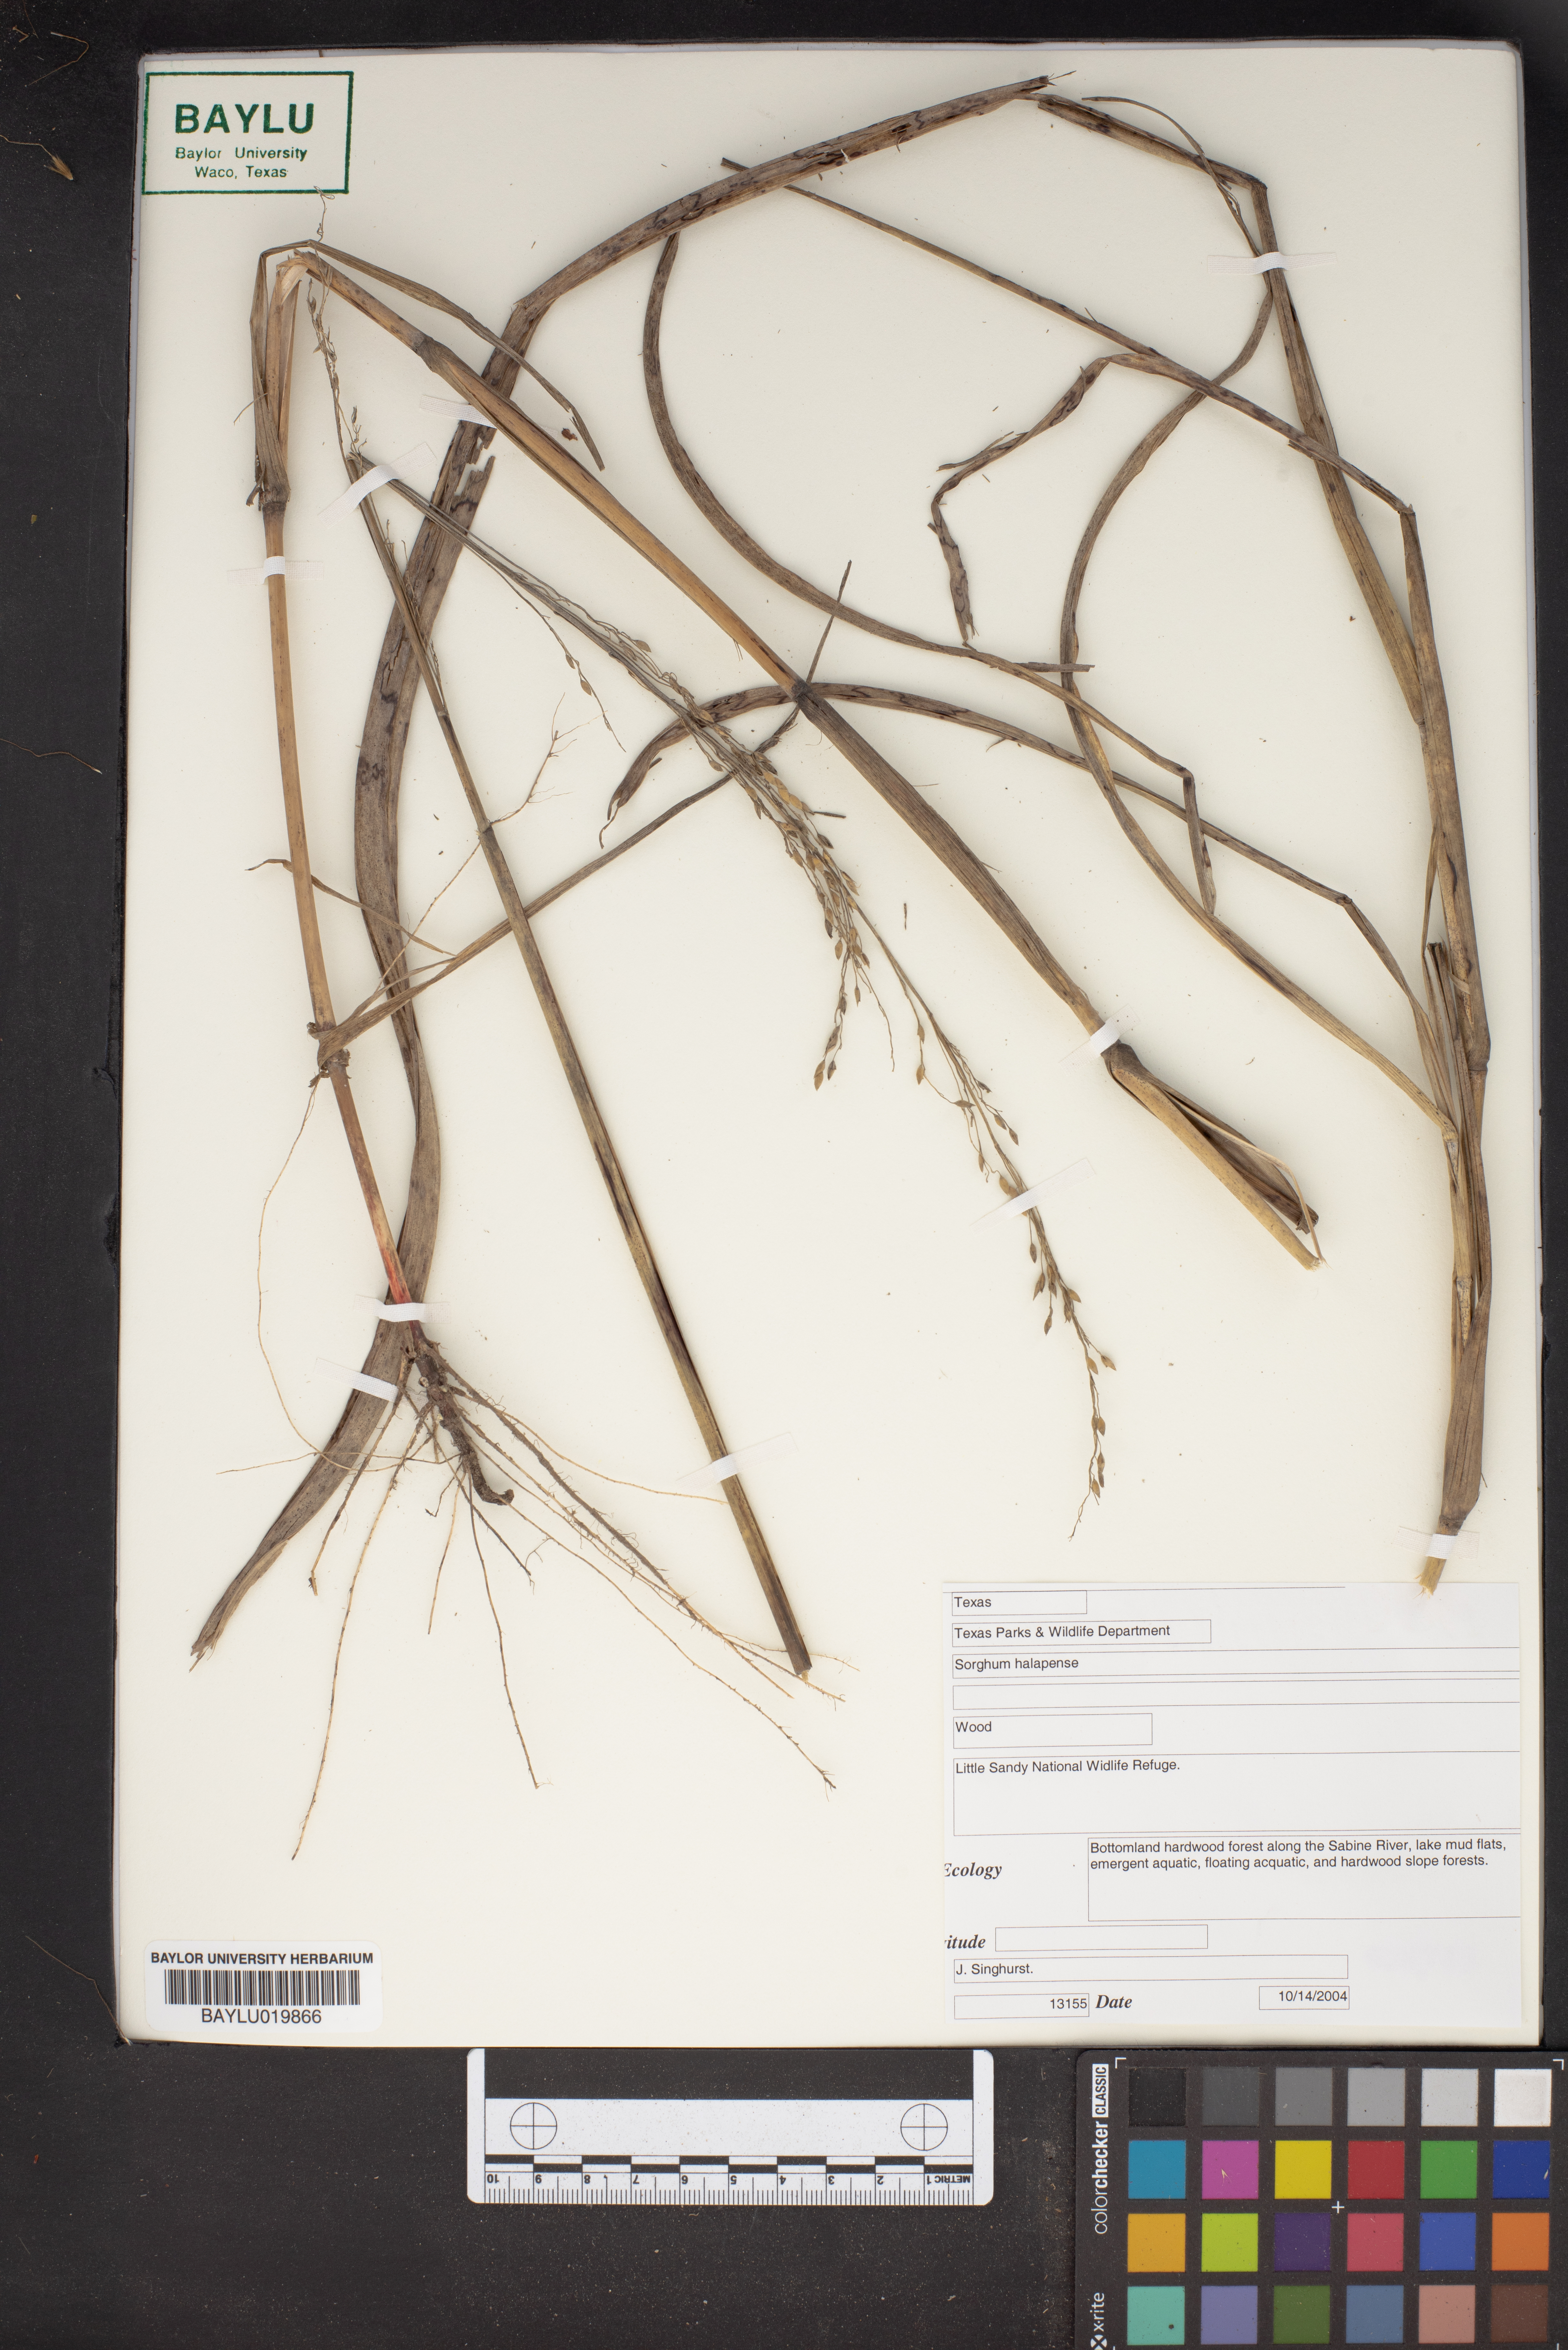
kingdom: Plantae
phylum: Tracheophyta
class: Liliopsida
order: Poales
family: Poaceae
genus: Sorghum
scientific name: Sorghum halepense
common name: Johnson-grass
